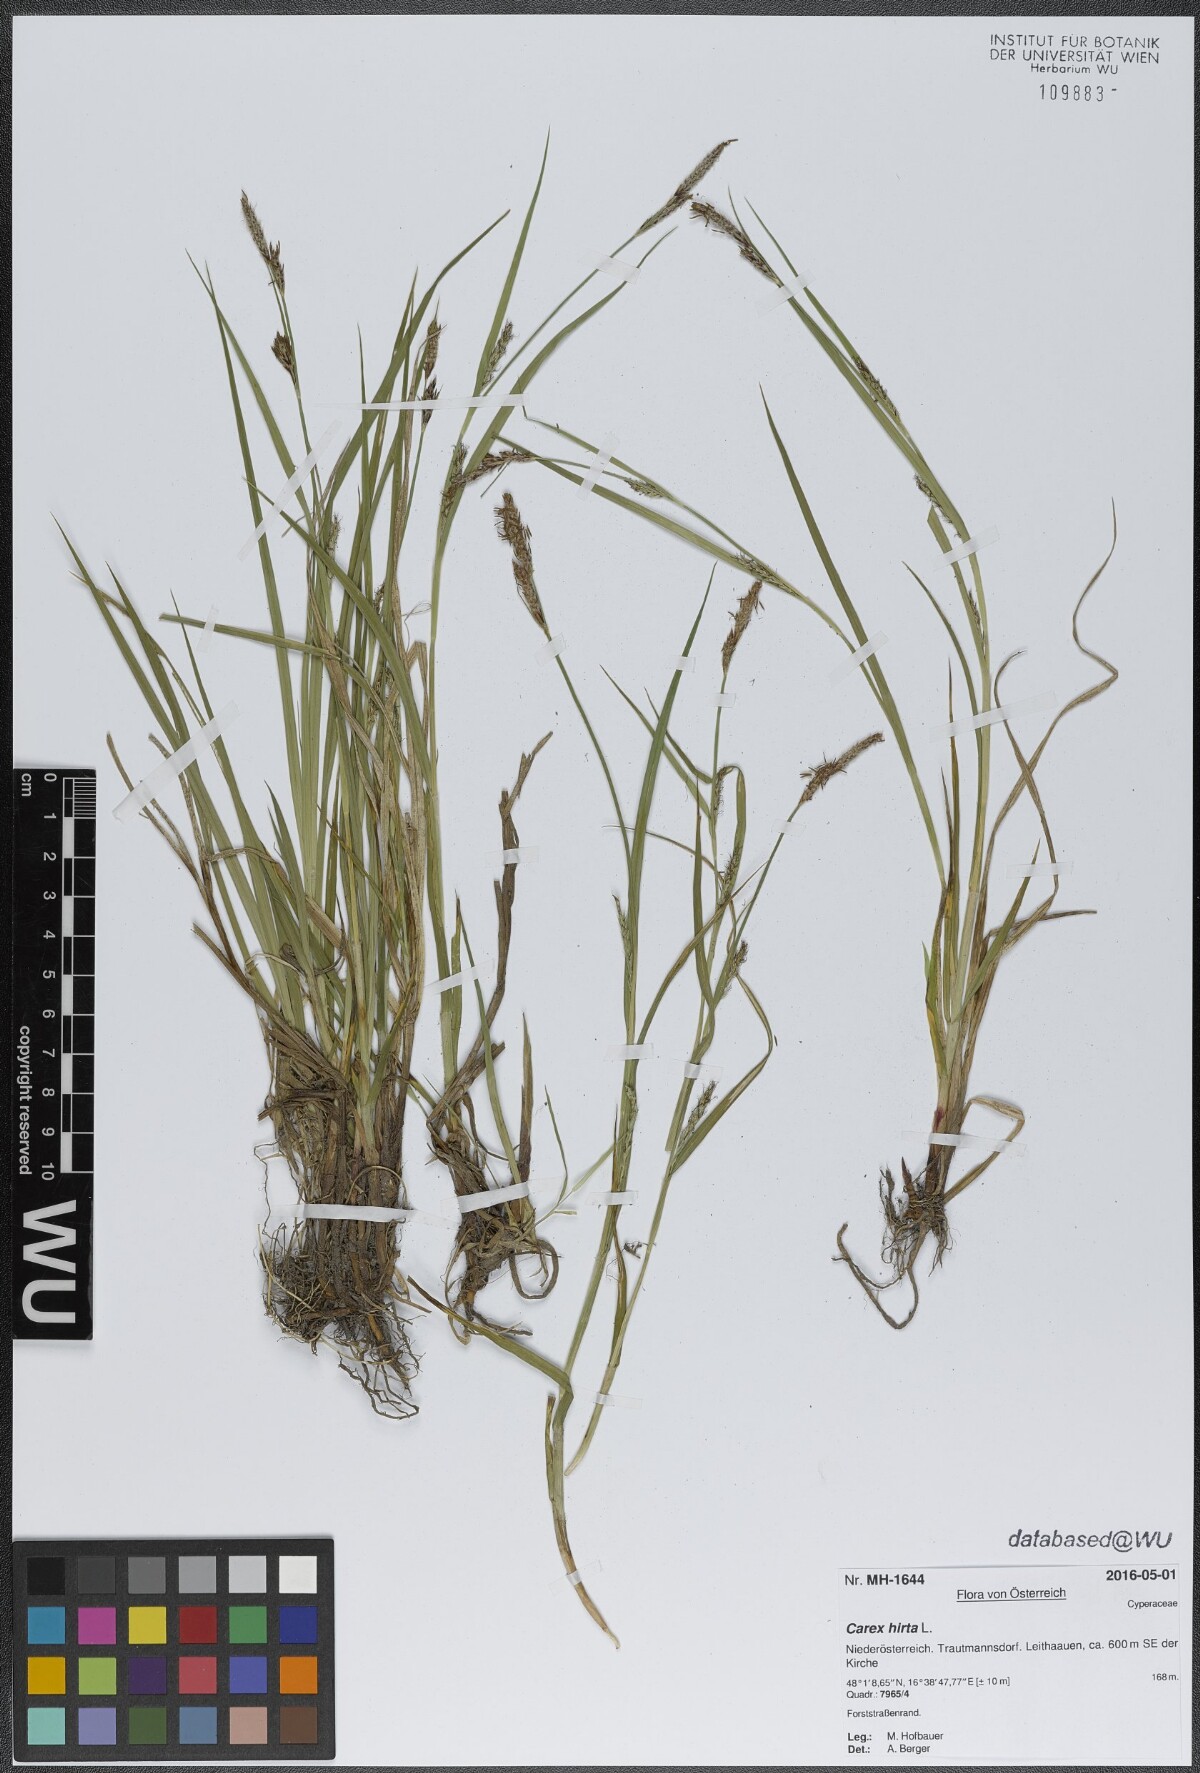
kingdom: Plantae
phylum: Tracheophyta
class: Liliopsida
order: Poales
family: Cyperaceae
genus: Carex
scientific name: Carex hirta
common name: Hairy sedge
